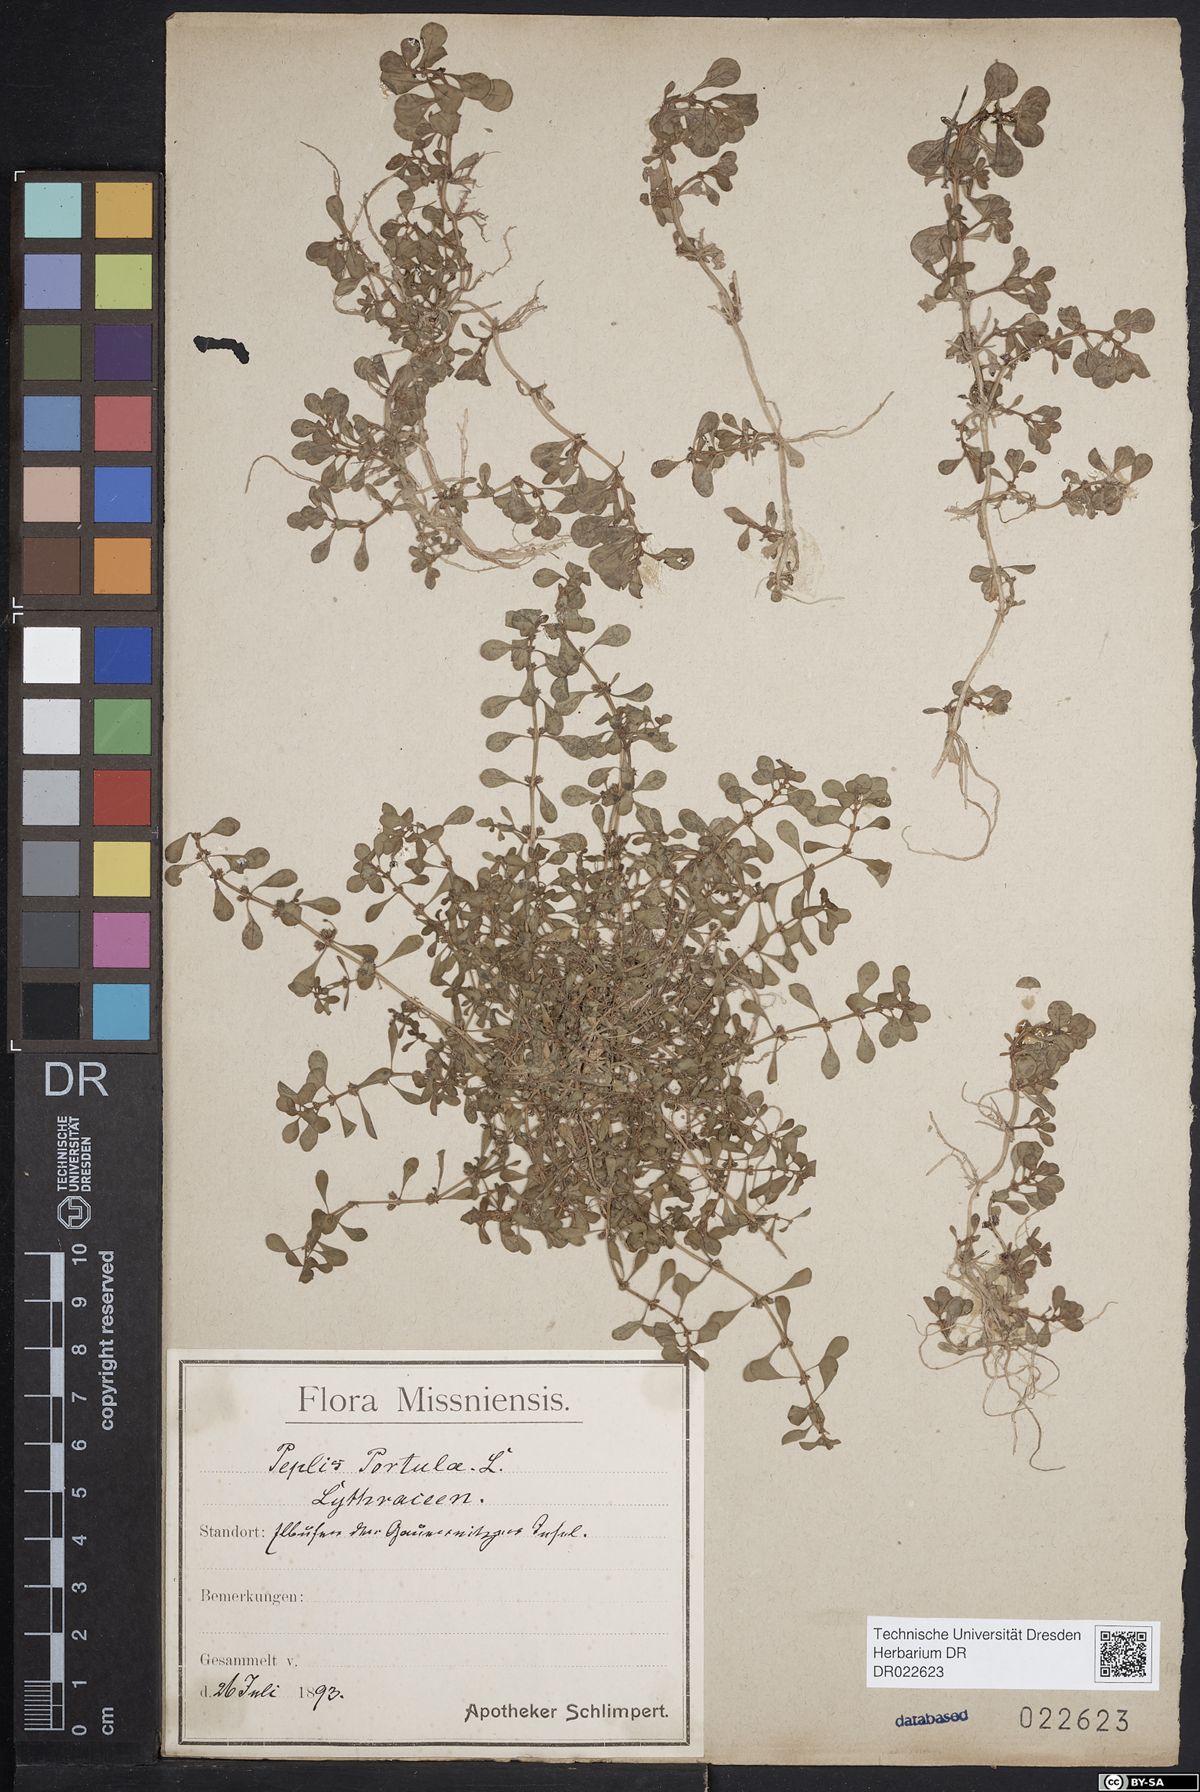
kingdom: Plantae
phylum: Tracheophyta
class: Magnoliopsida
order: Myrtales
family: Lythraceae
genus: Lythrum
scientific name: Lythrum portula
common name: Water purslane
